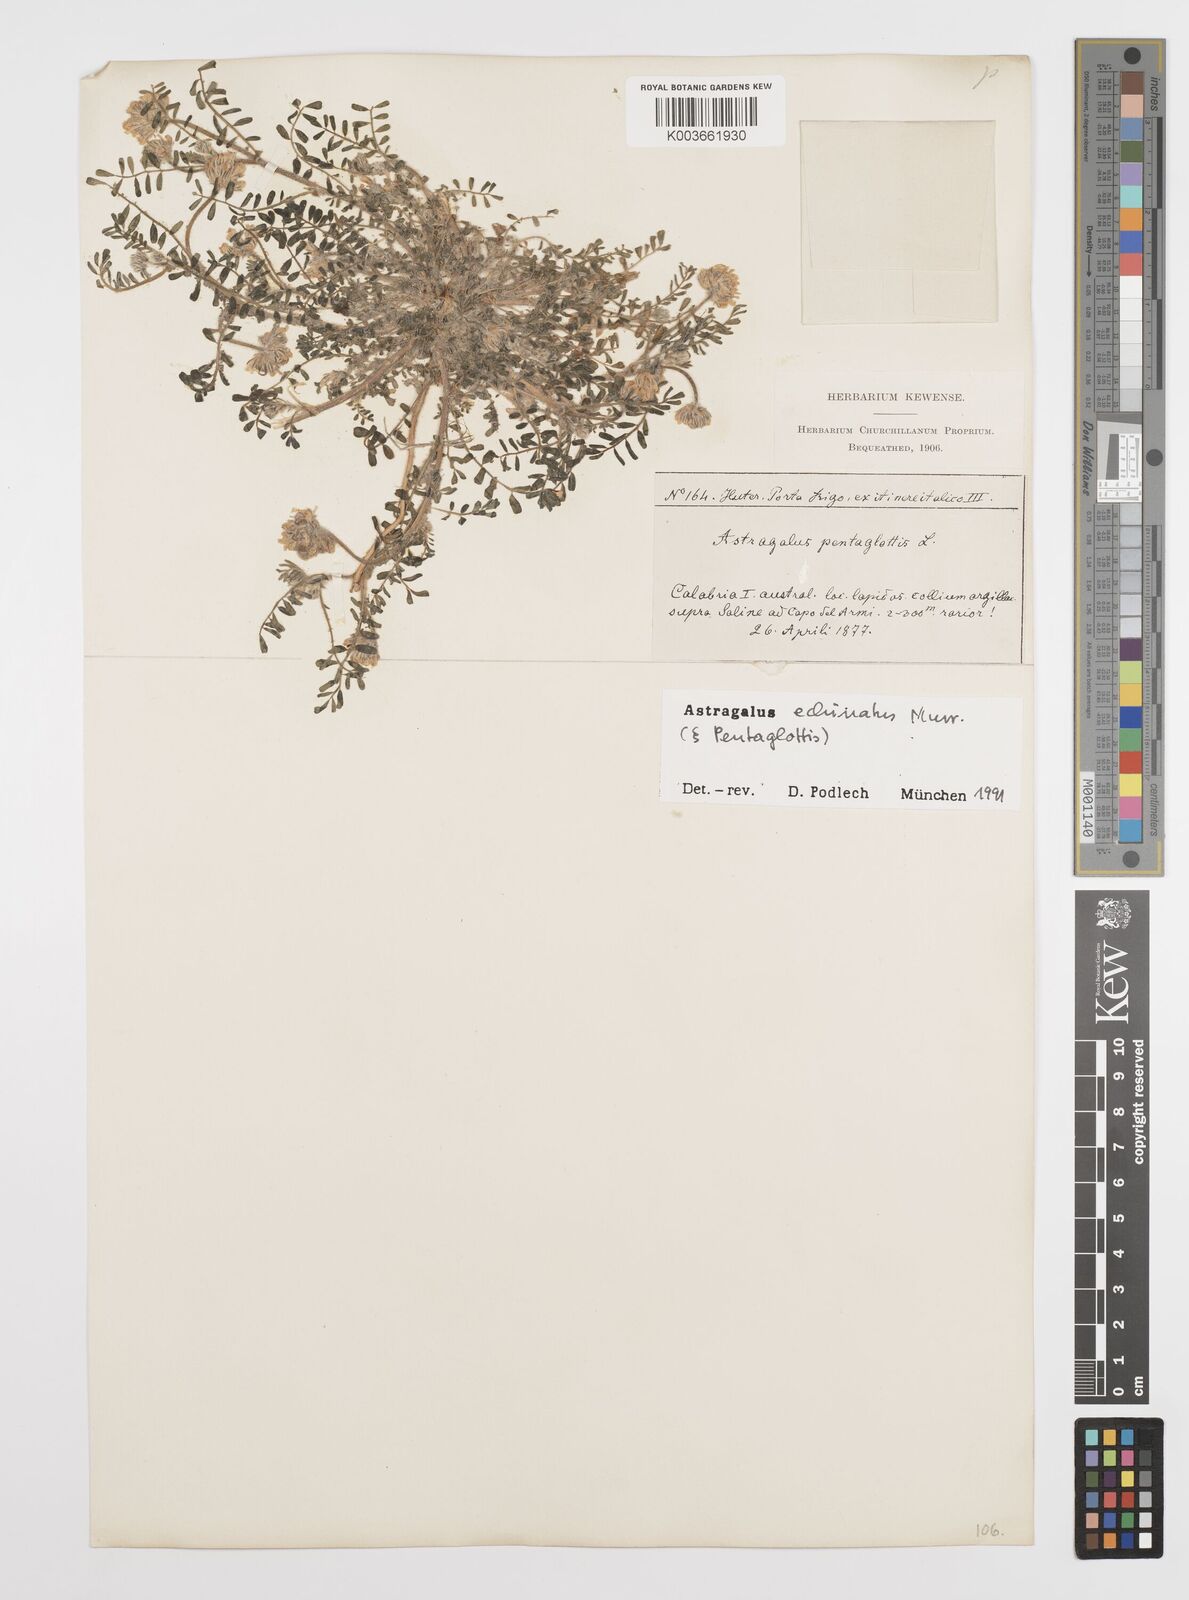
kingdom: Plantae
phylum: Tracheophyta
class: Magnoliopsida
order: Fabales
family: Fabaceae
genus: Astragalus
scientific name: Astragalus echinatus
